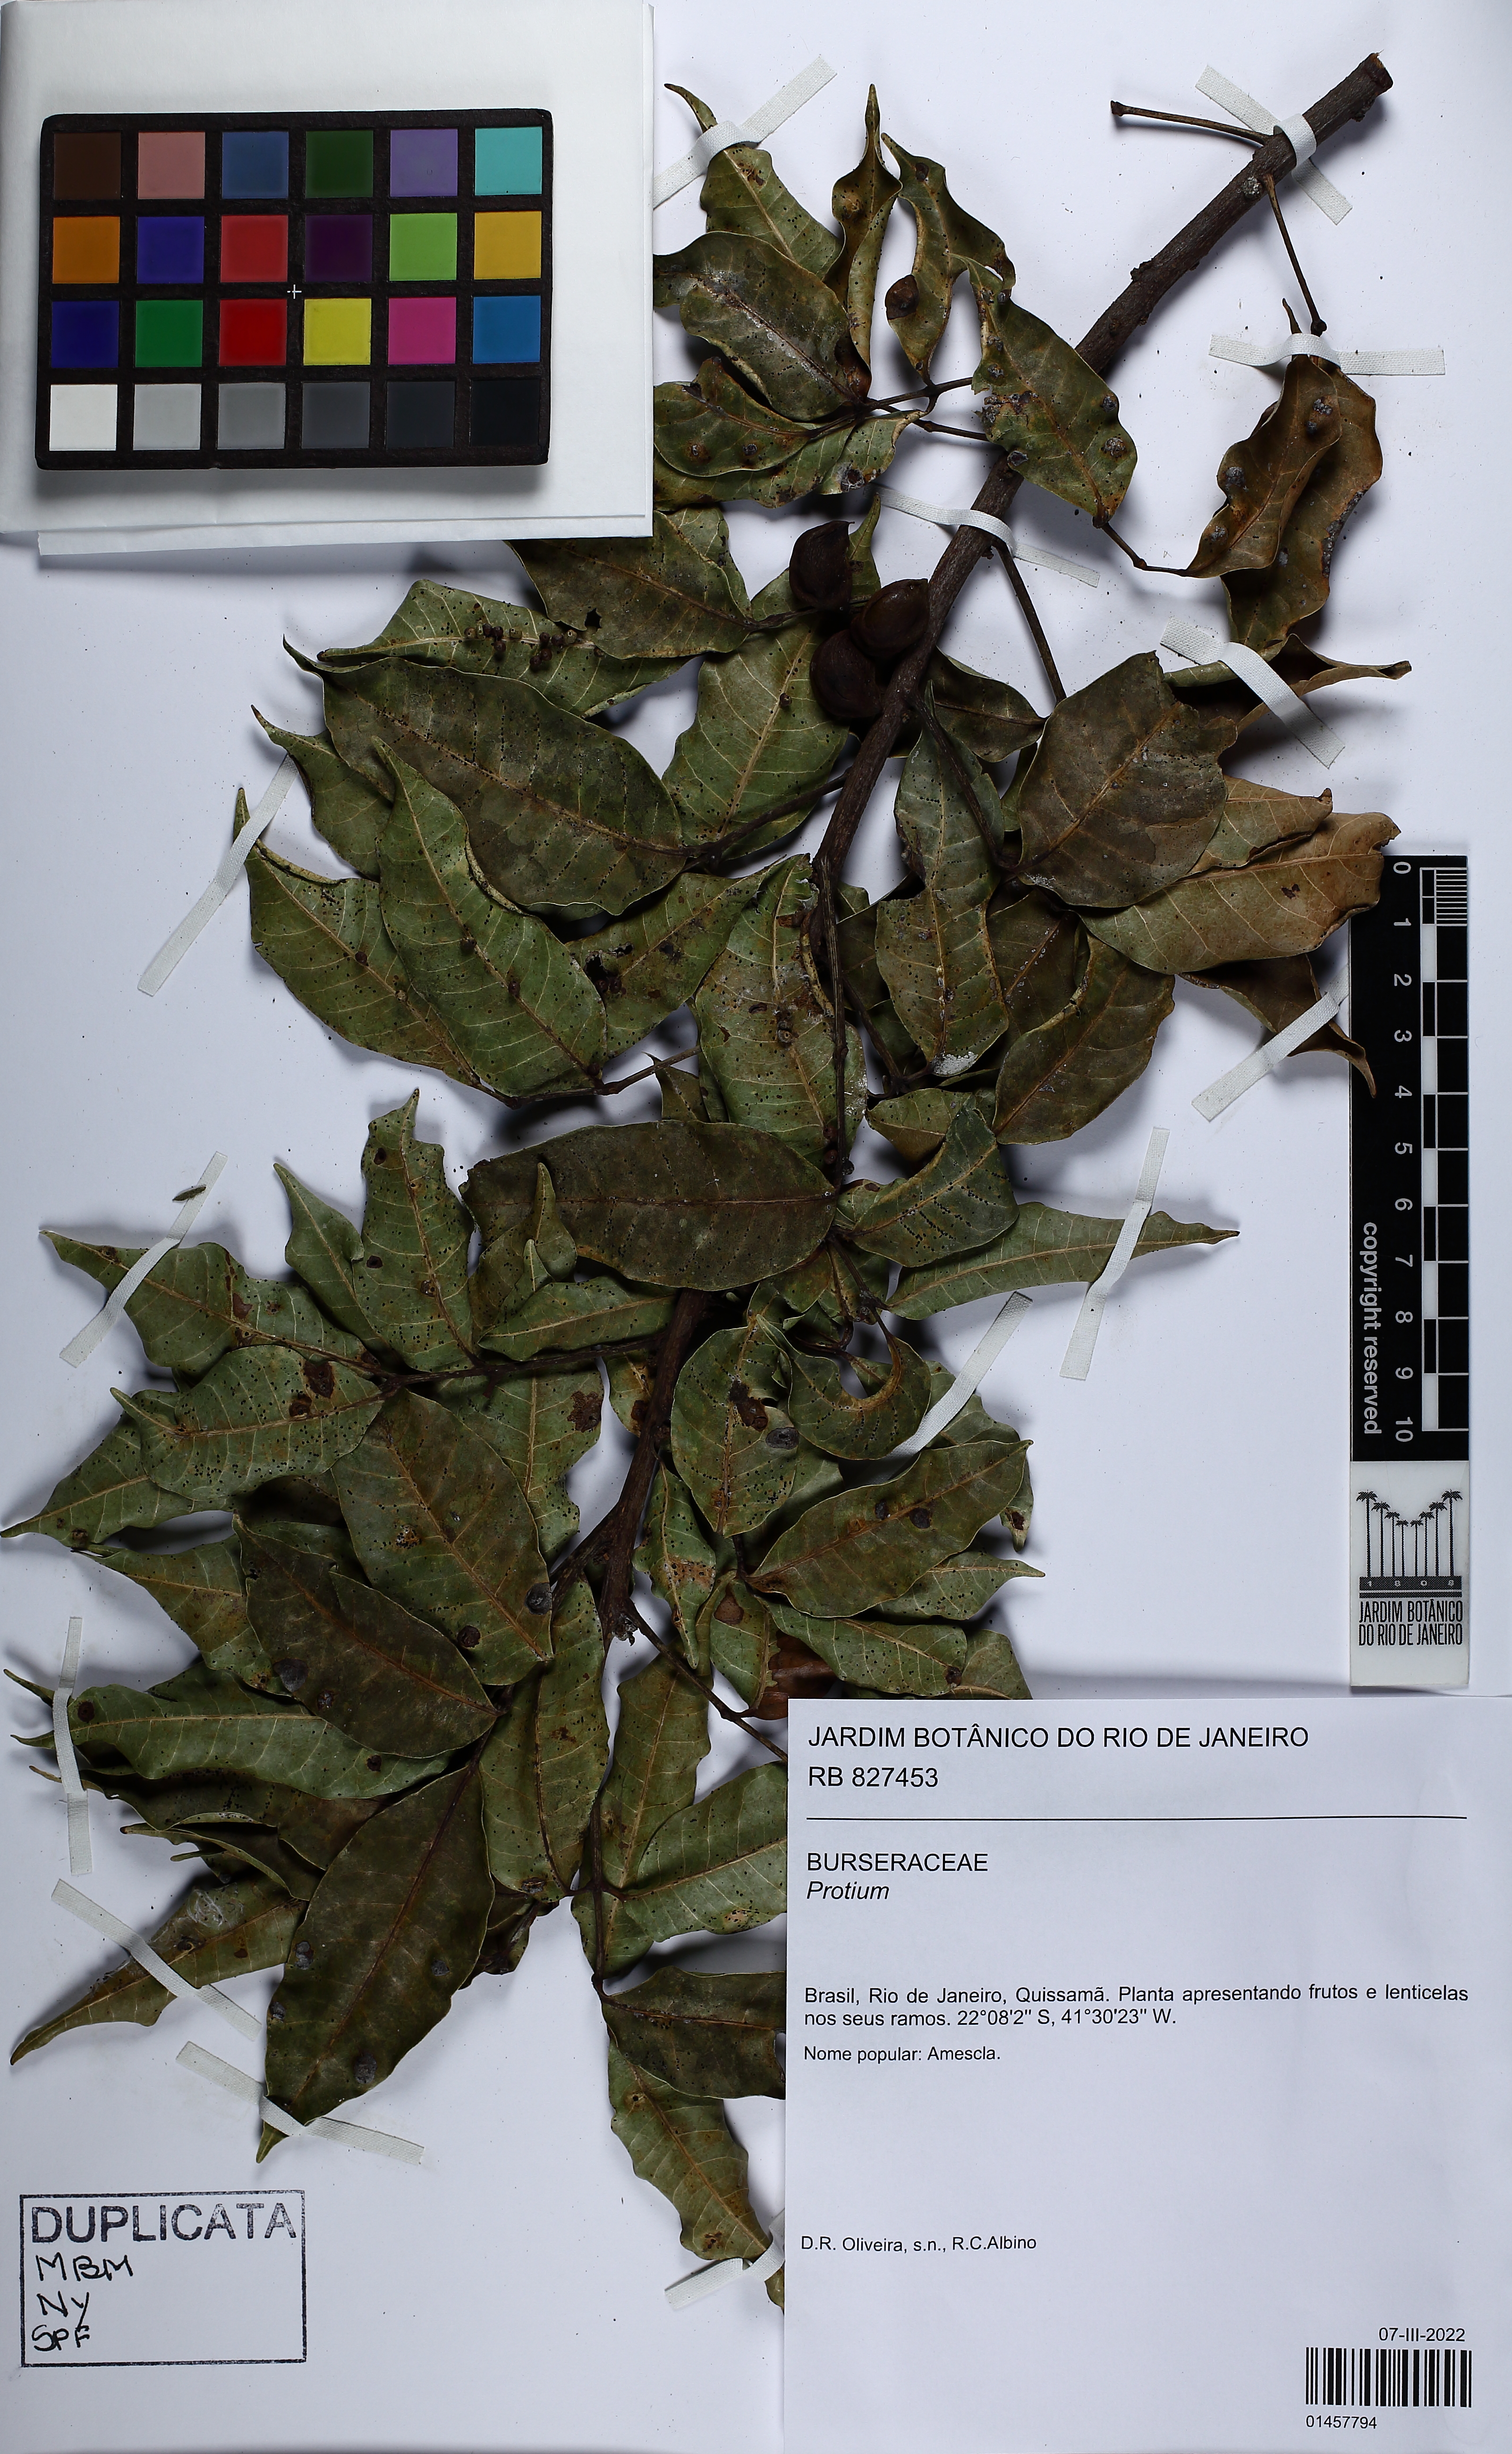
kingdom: Plantae
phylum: Tracheophyta
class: Magnoliopsida
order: Sapindales
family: Burseraceae
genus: Protium
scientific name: Protium
